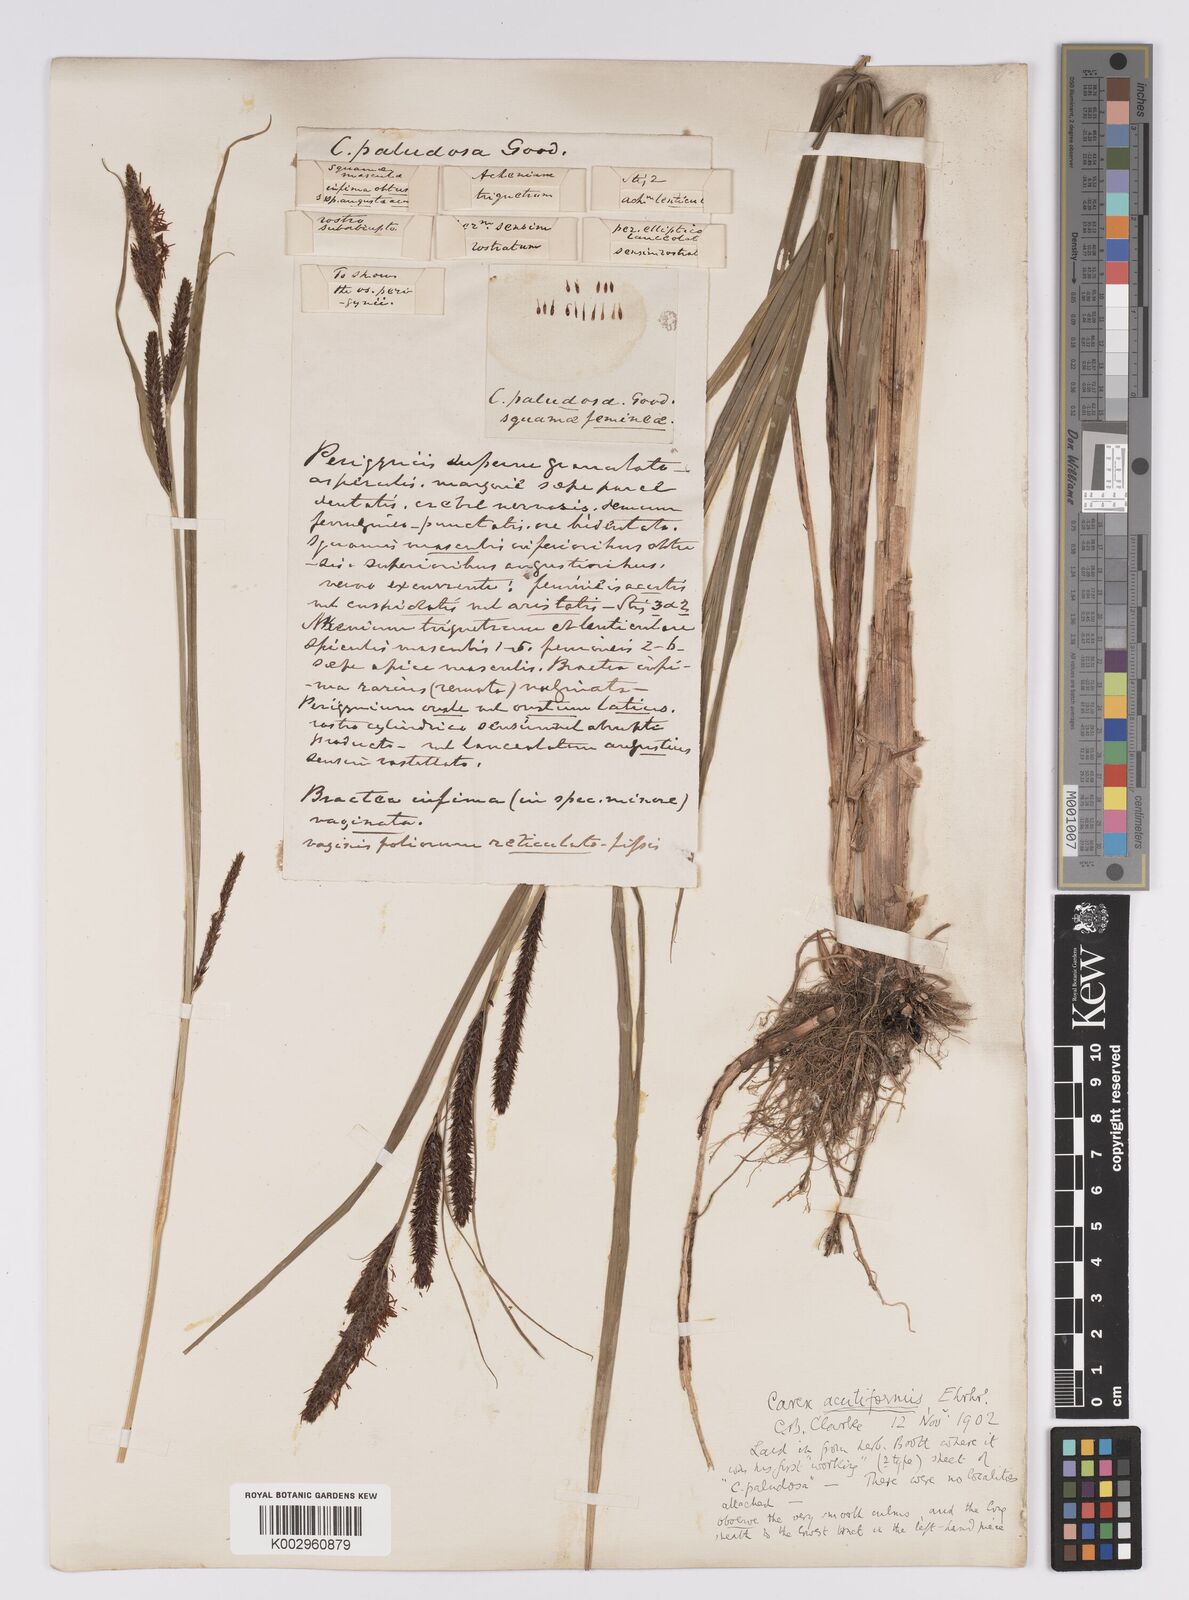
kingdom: Plantae
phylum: Tracheophyta
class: Liliopsida
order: Poales
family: Cyperaceae
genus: Carex
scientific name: Carex acutiformis
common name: Lesser pond-sedge
